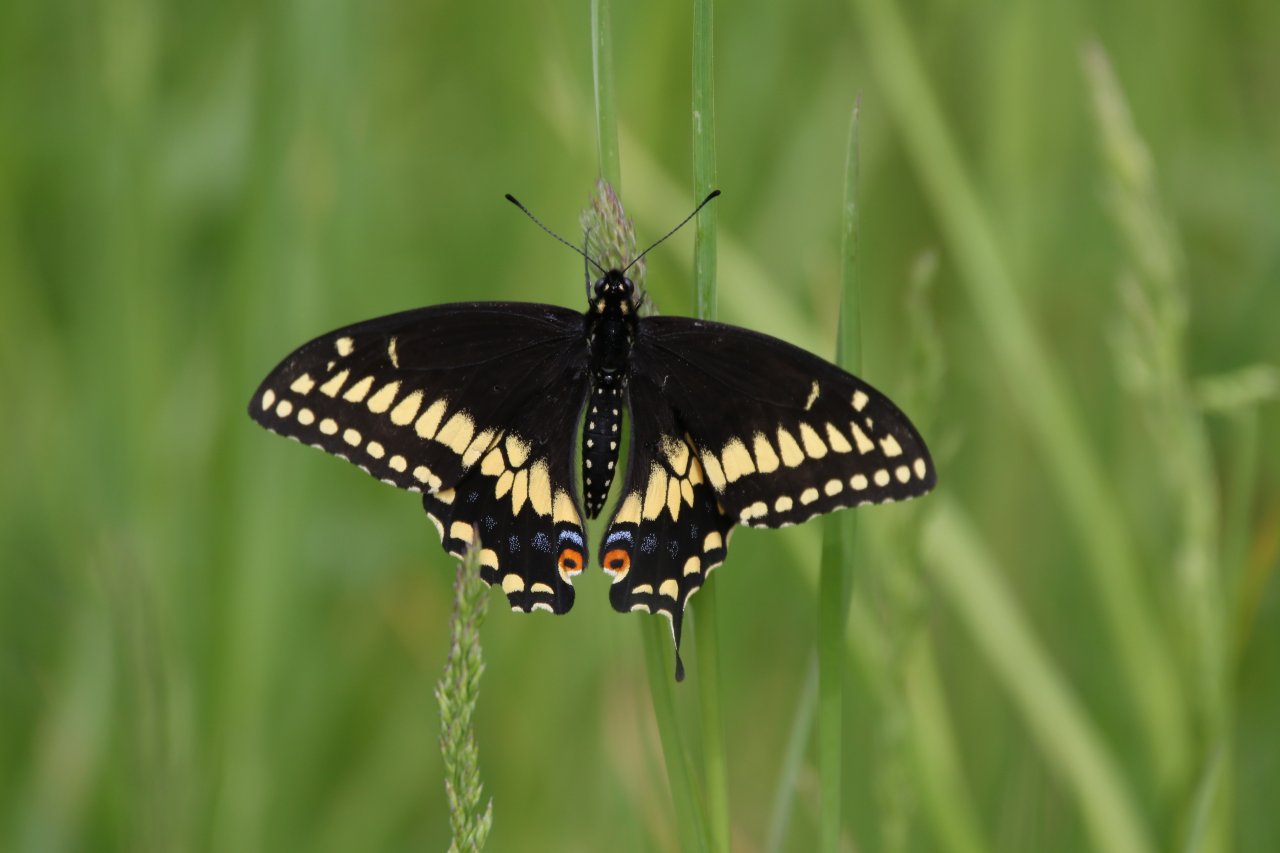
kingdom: Animalia
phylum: Arthropoda
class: Insecta
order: Lepidoptera
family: Papilionidae
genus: Papilio
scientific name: Papilio polyxenes
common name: Black Swallowtail
